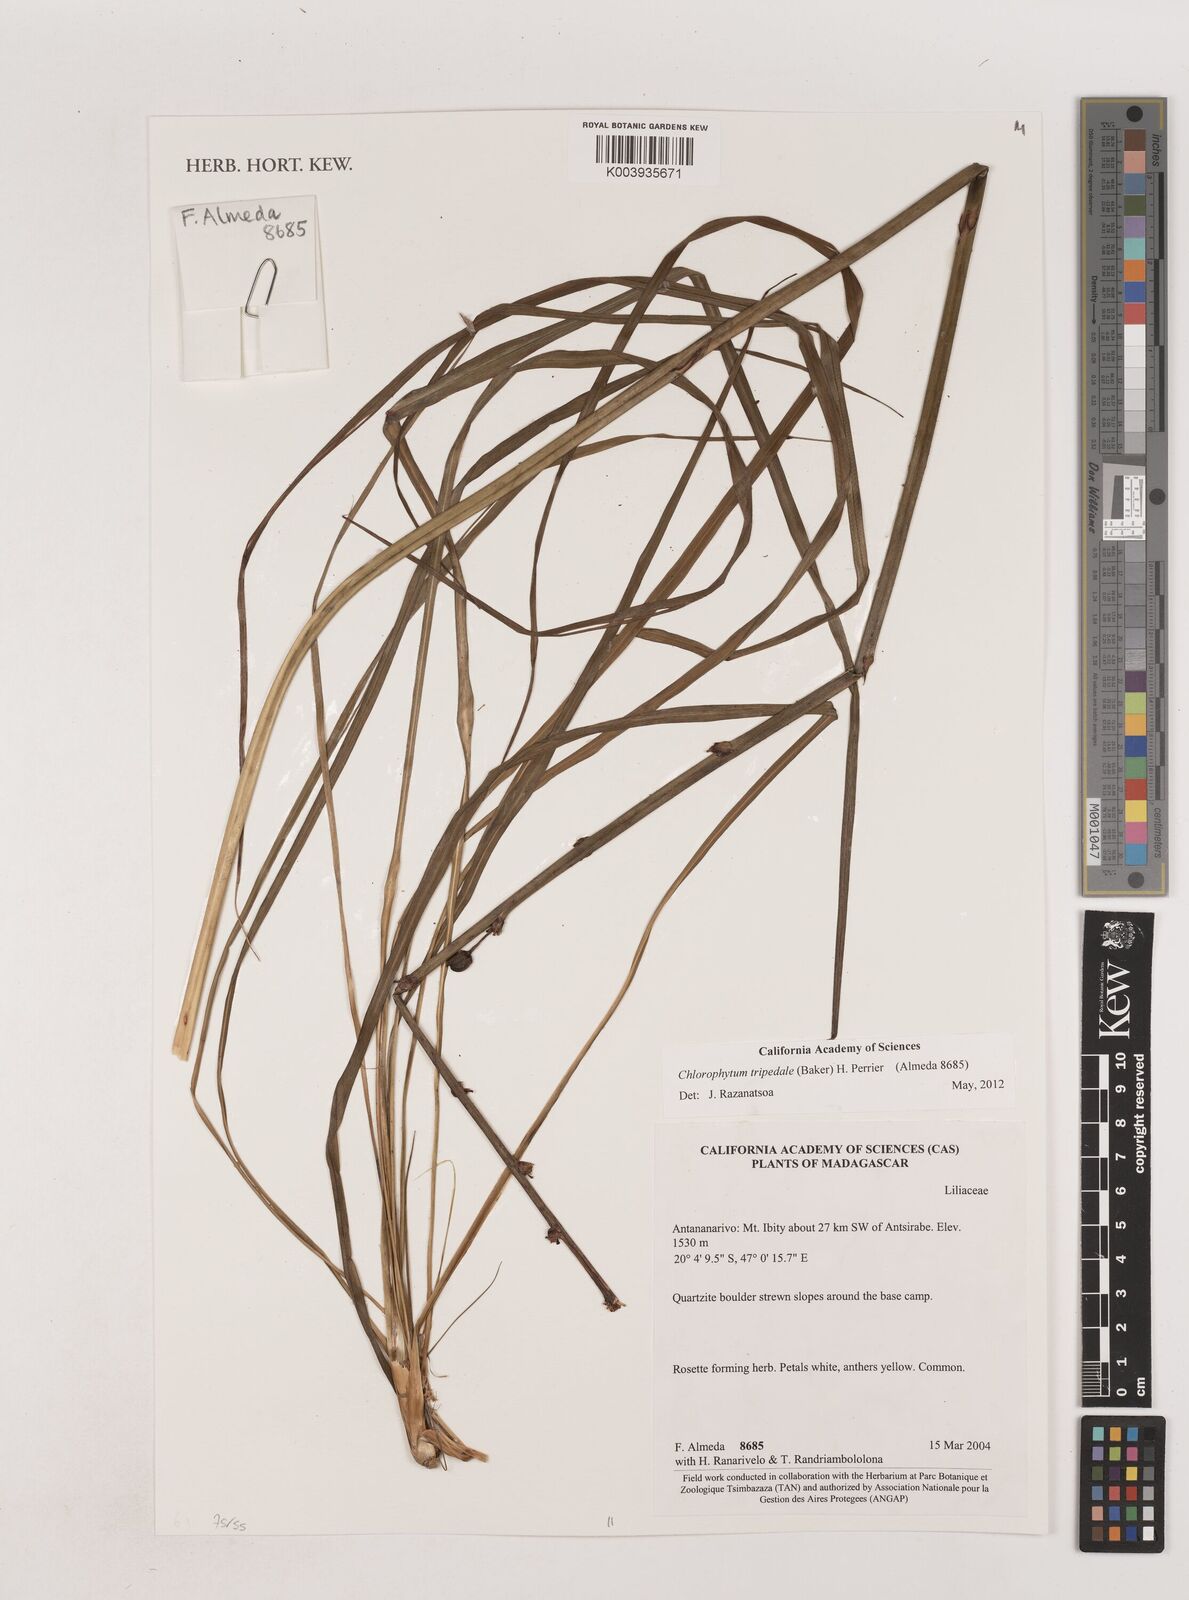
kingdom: Plantae
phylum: Tracheophyta
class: Liliopsida
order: Asparagales
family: Asparagaceae
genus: Chlorophytum
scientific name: Chlorophytum tripedale
